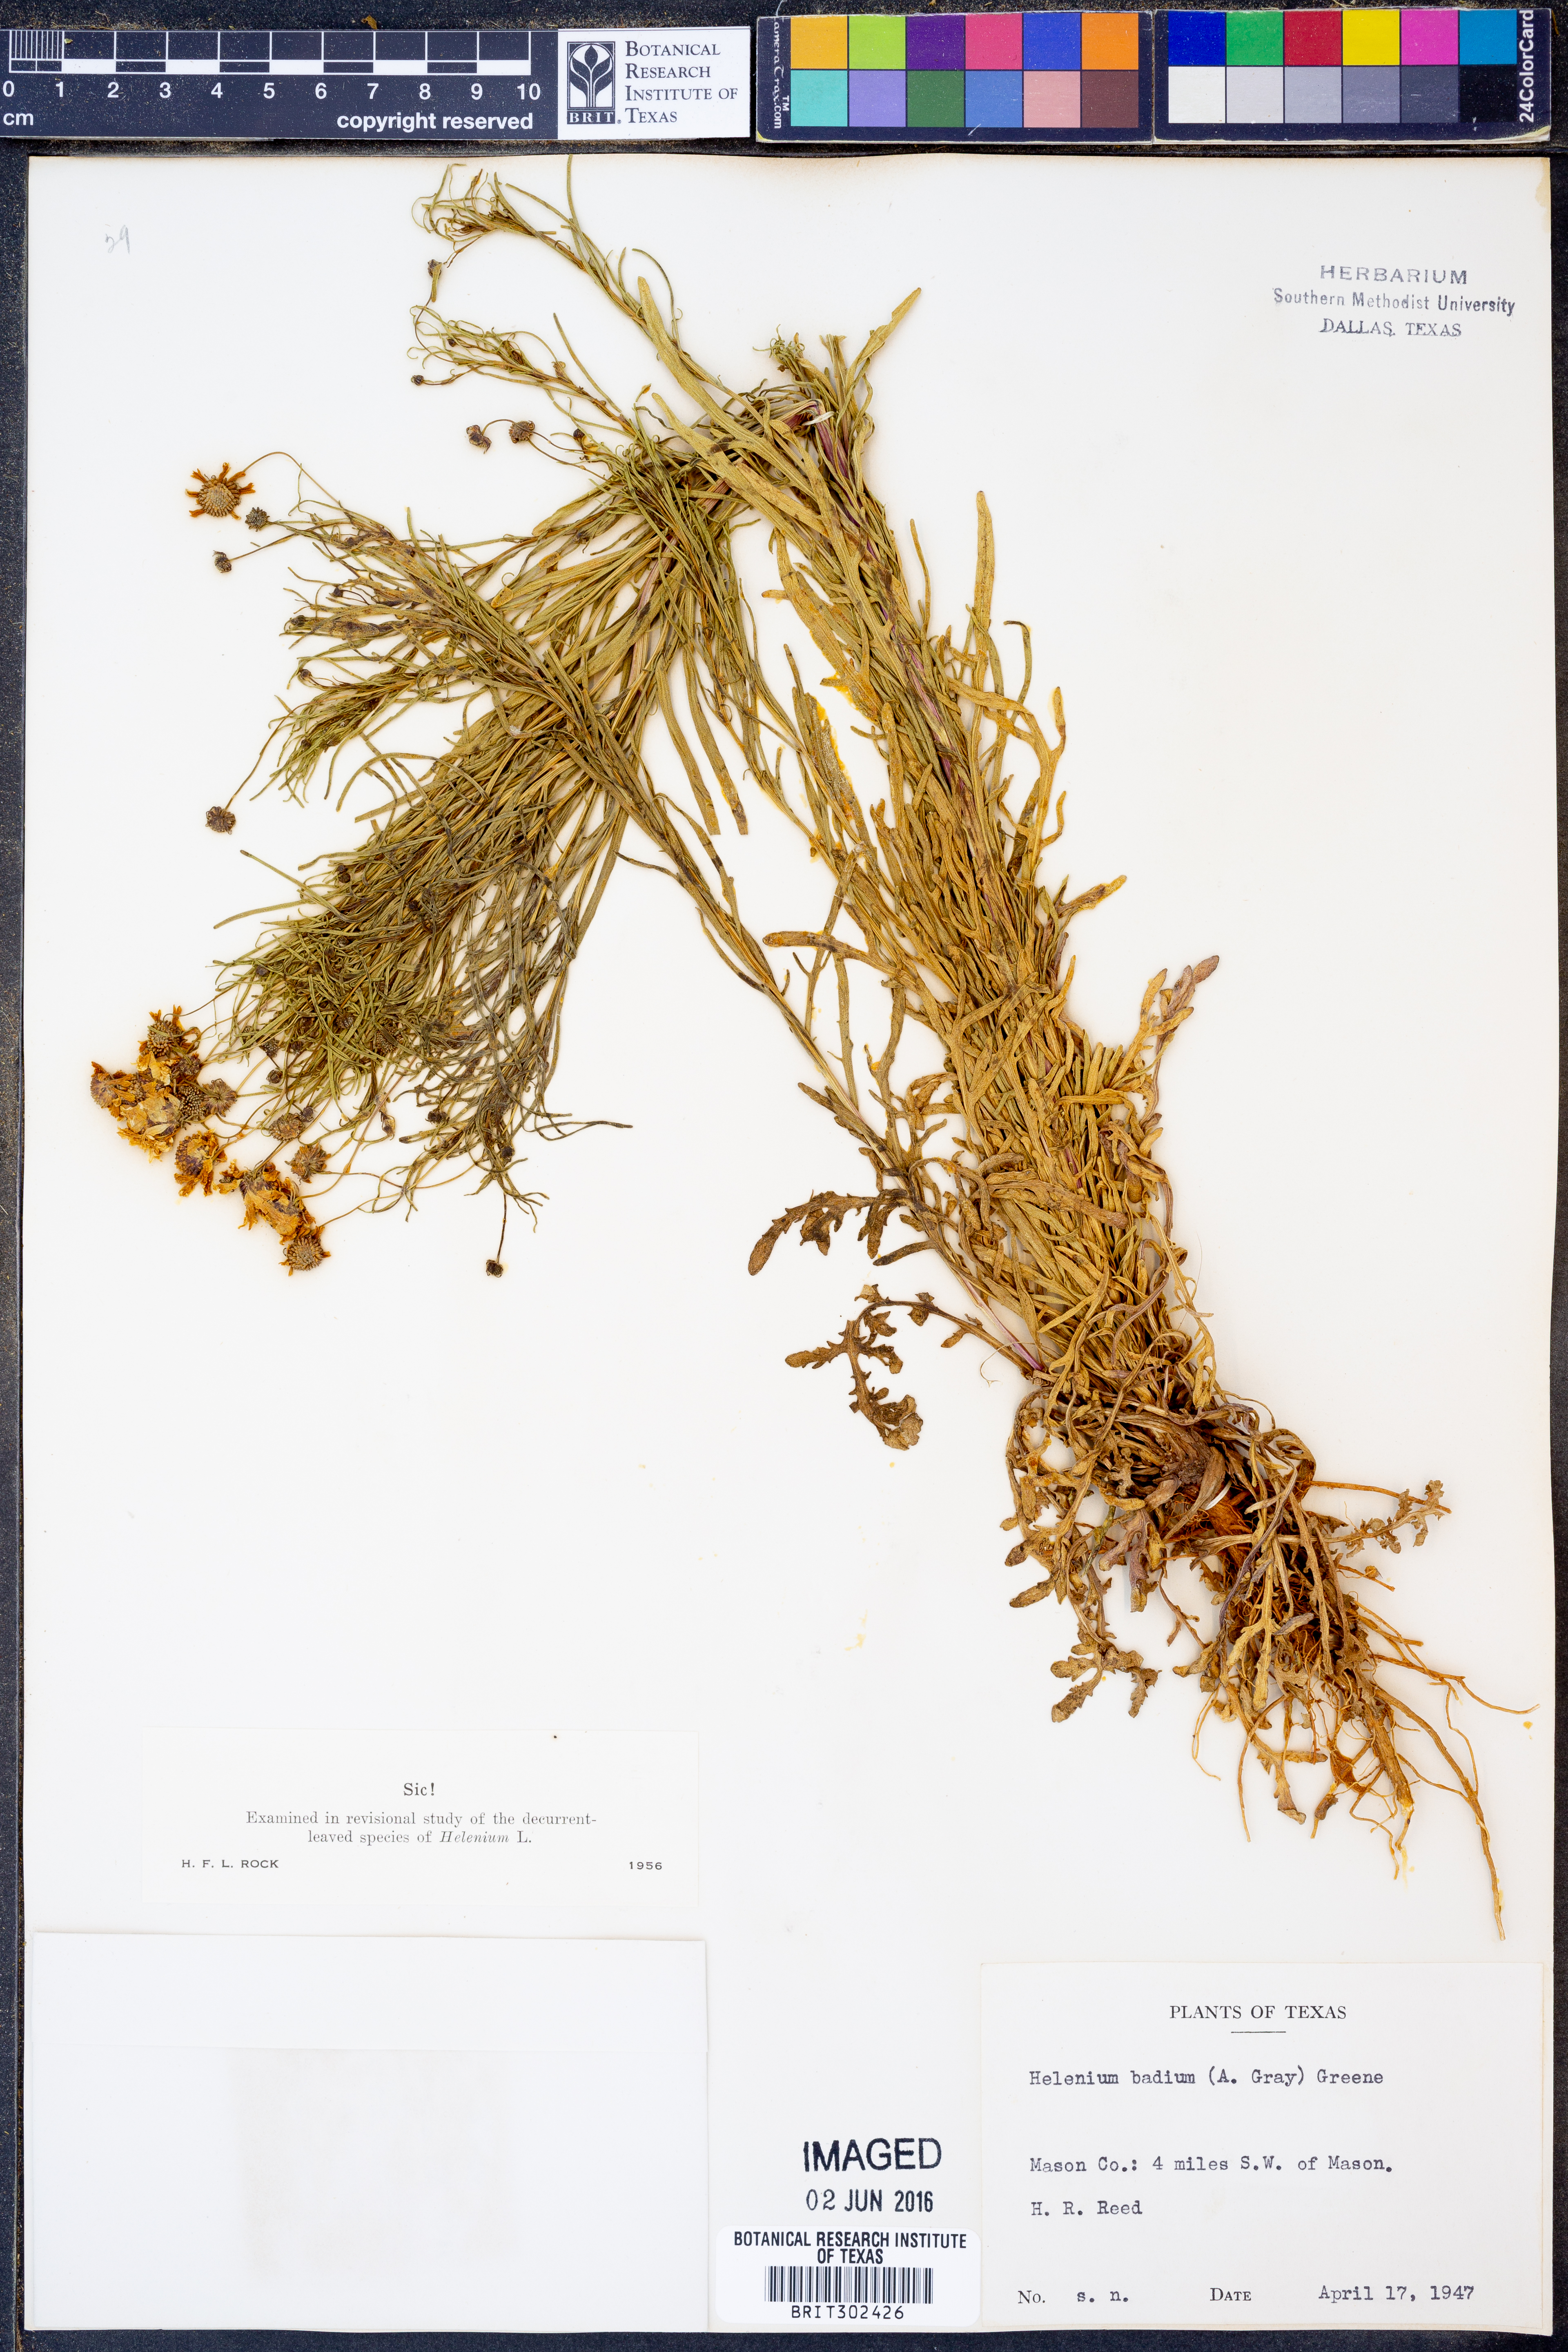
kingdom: Plantae
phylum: Tracheophyta
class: Magnoliopsida
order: Asterales
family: Asteraceae
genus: Helenium
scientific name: Helenium amarum
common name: Bitter sneezeweed
